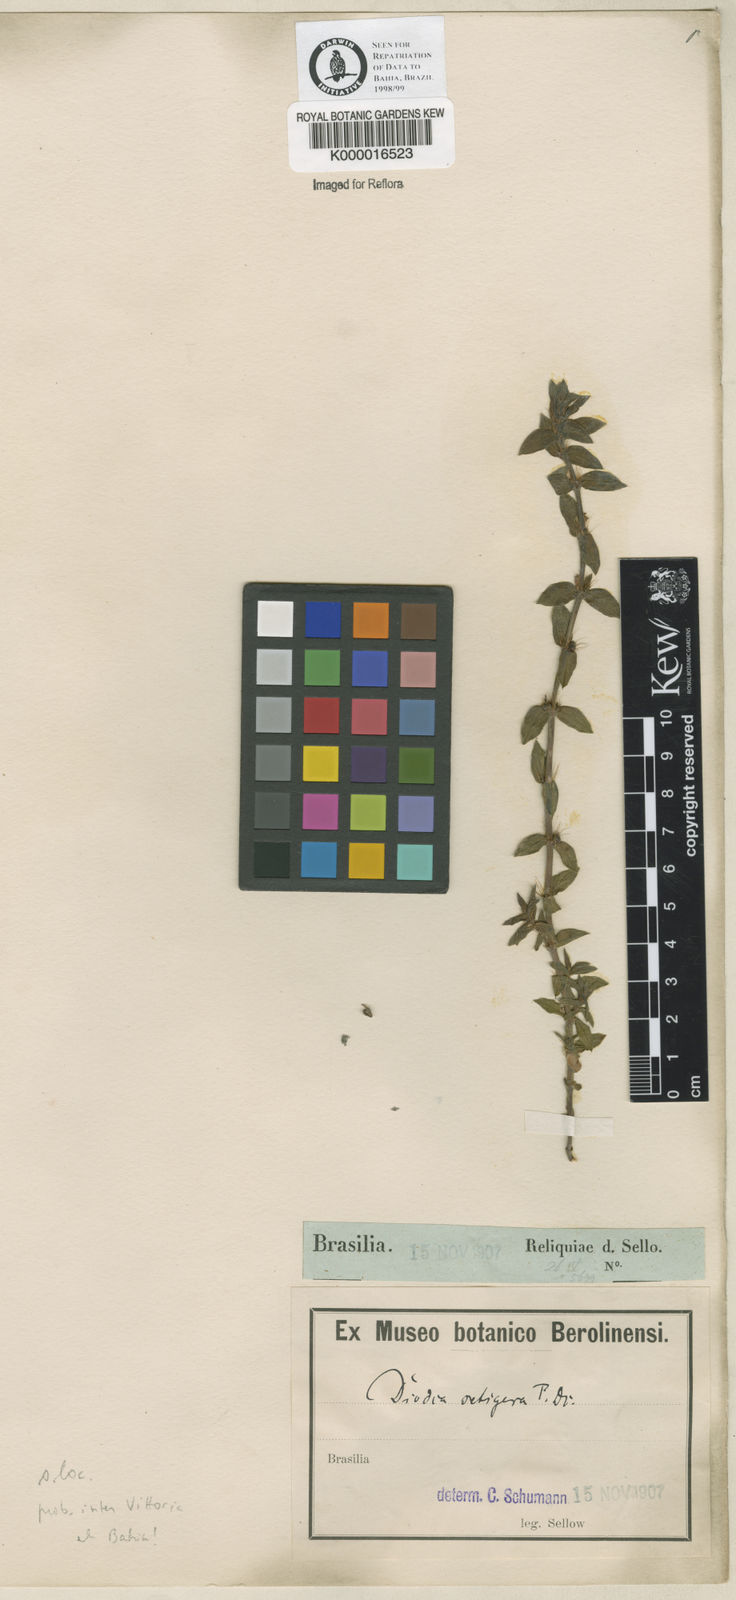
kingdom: Plantae
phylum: Tracheophyta
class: Magnoliopsida
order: Gentianales
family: Rubiaceae
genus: Hexasepalum
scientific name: Hexasepalum apiculatum
